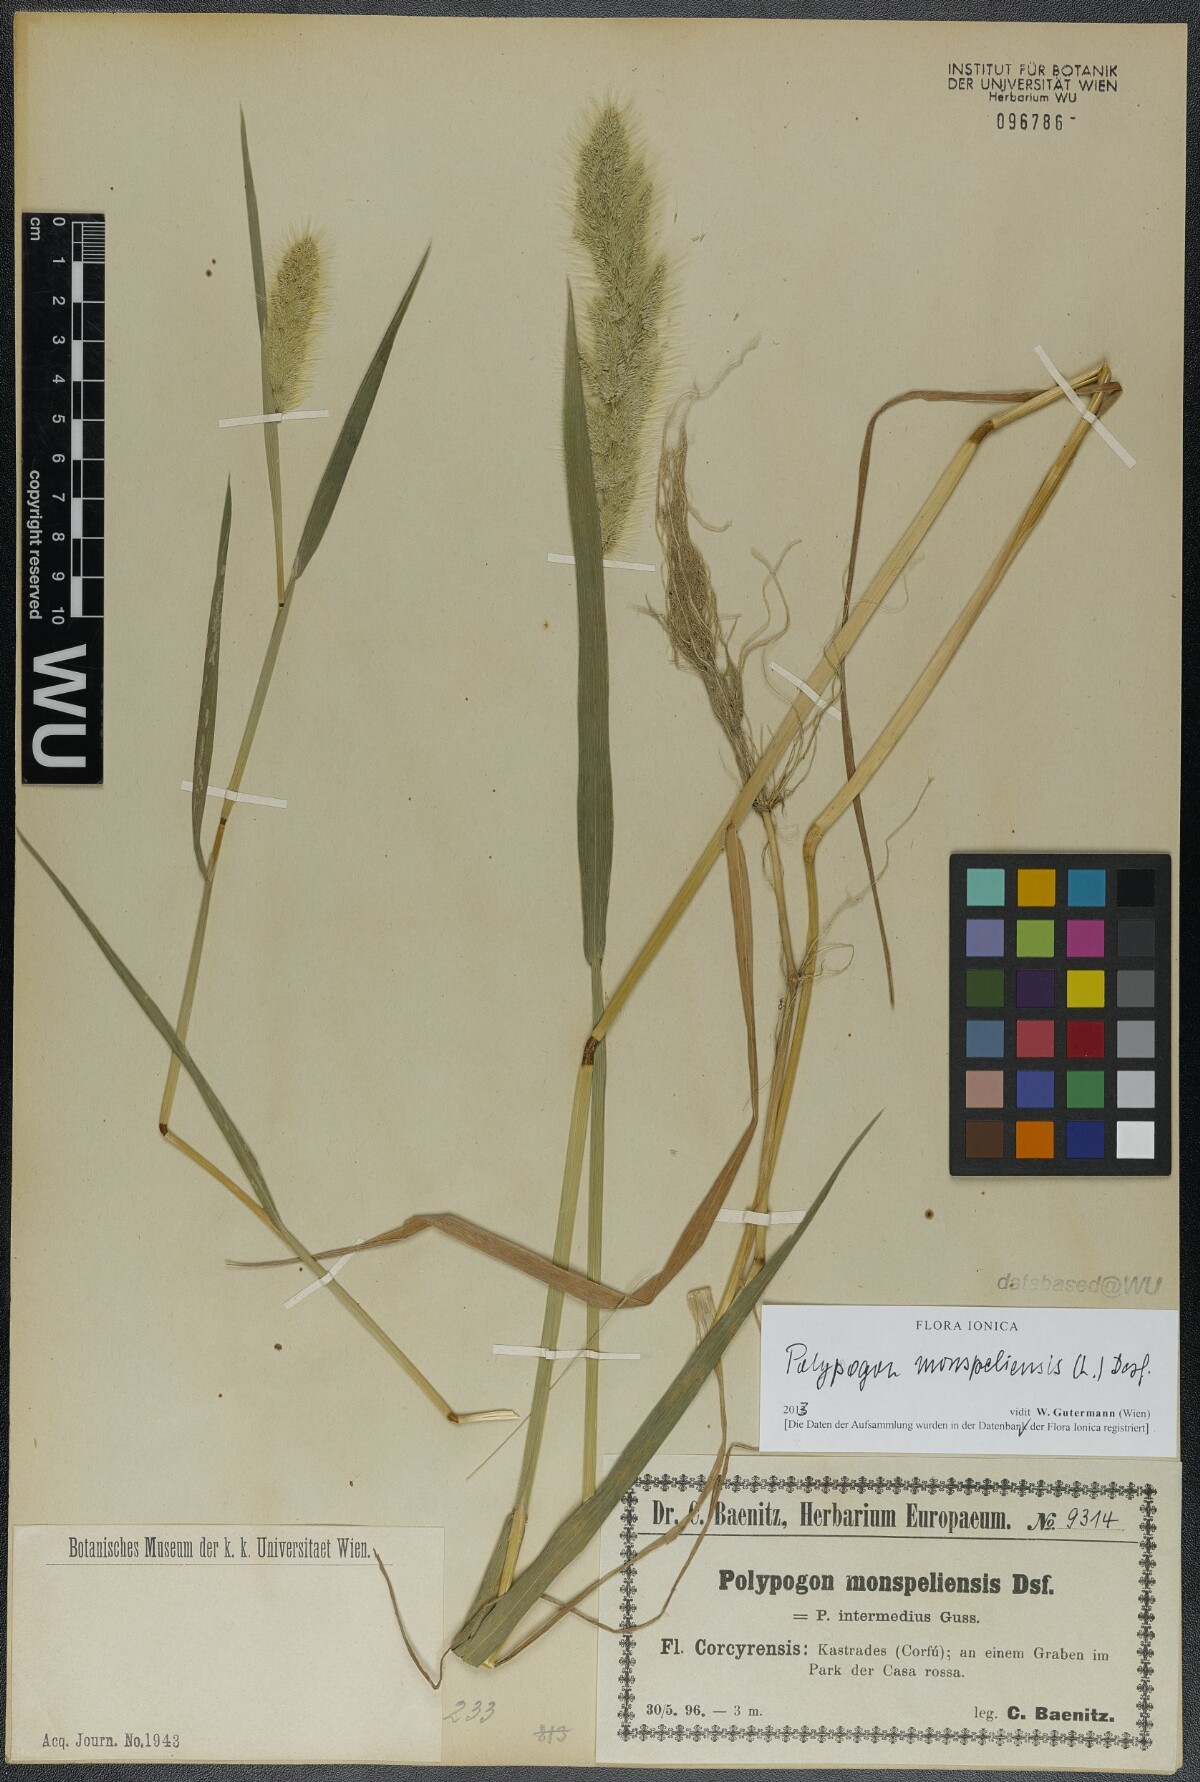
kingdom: Plantae
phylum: Tracheophyta
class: Liliopsida
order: Poales
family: Poaceae
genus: Polypogon
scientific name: Polypogon monspeliensis
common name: Annual rabbitsfoot grass
